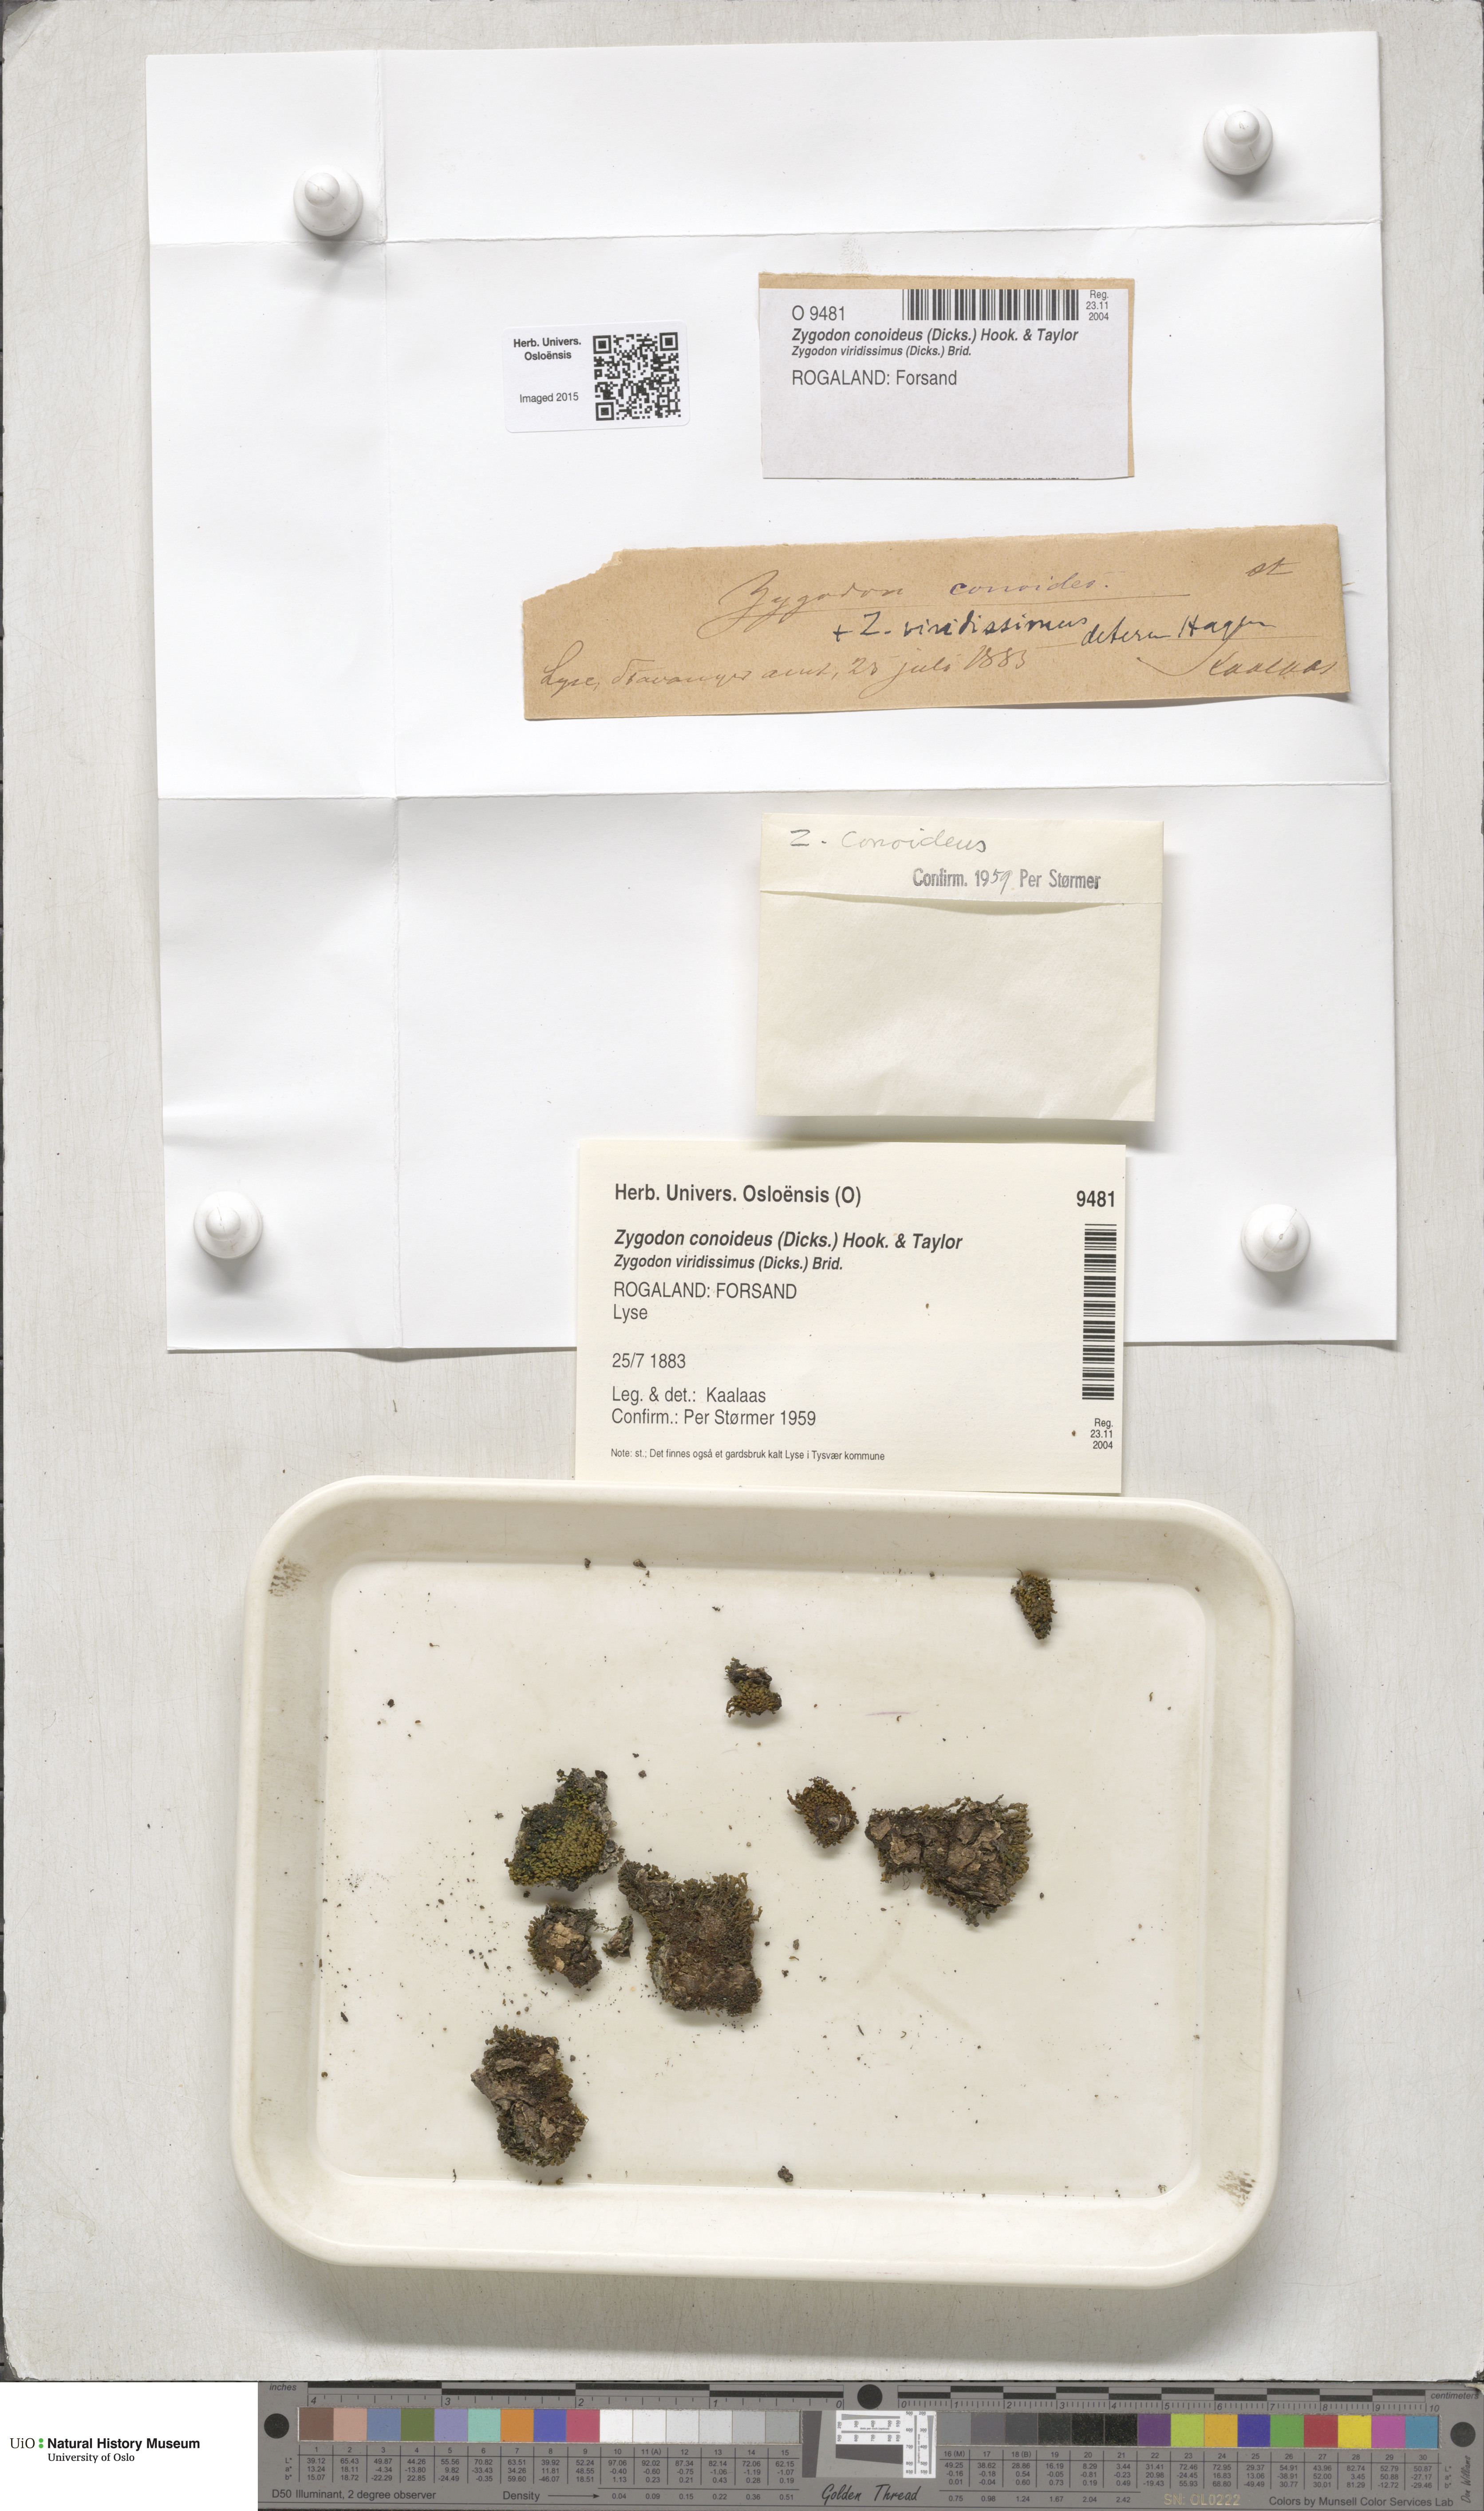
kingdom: Plantae
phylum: Bryophyta
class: Bryopsida
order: Orthotrichales
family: Orthotrichaceae
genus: Zygodon
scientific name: Zygodon conoideus
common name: Lesser yoke-moss
